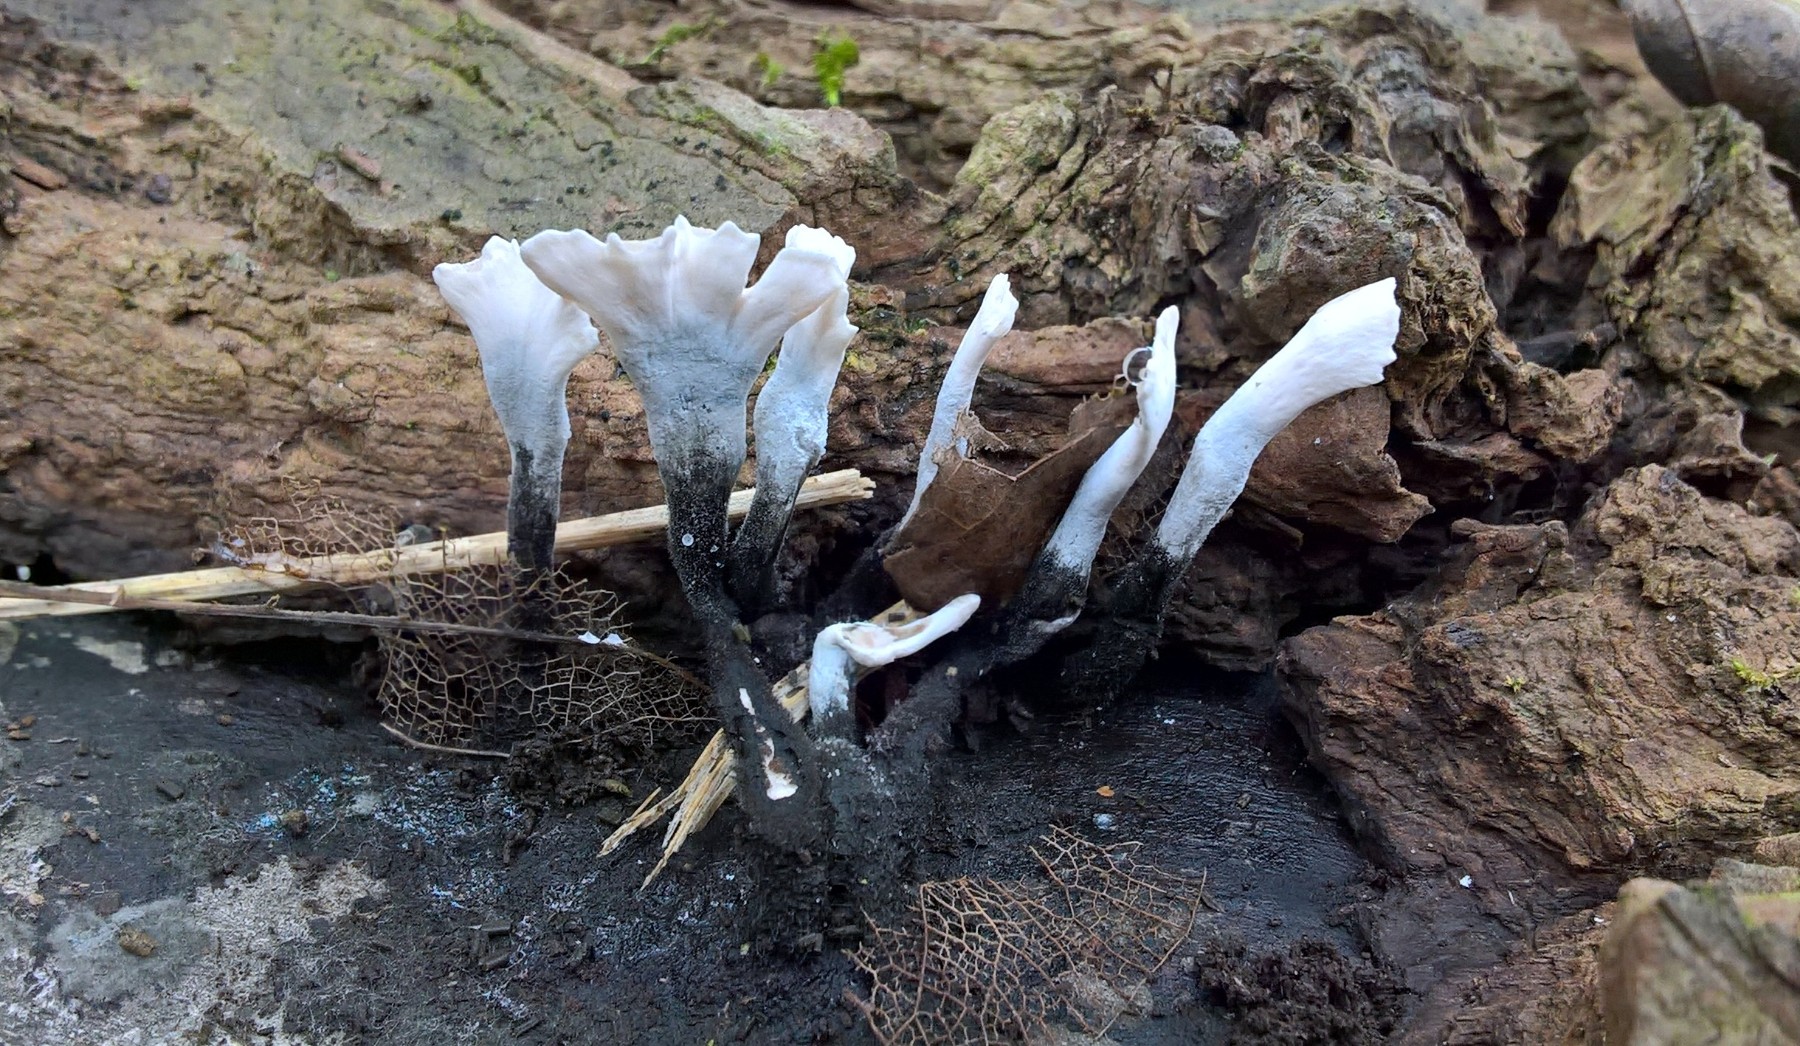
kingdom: Fungi
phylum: Ascomycota
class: Sordariomycetes
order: Xylariales
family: Xylariaceae
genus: Xylaria
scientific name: Xylaria hypoxylon
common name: grenet stødsvamp
